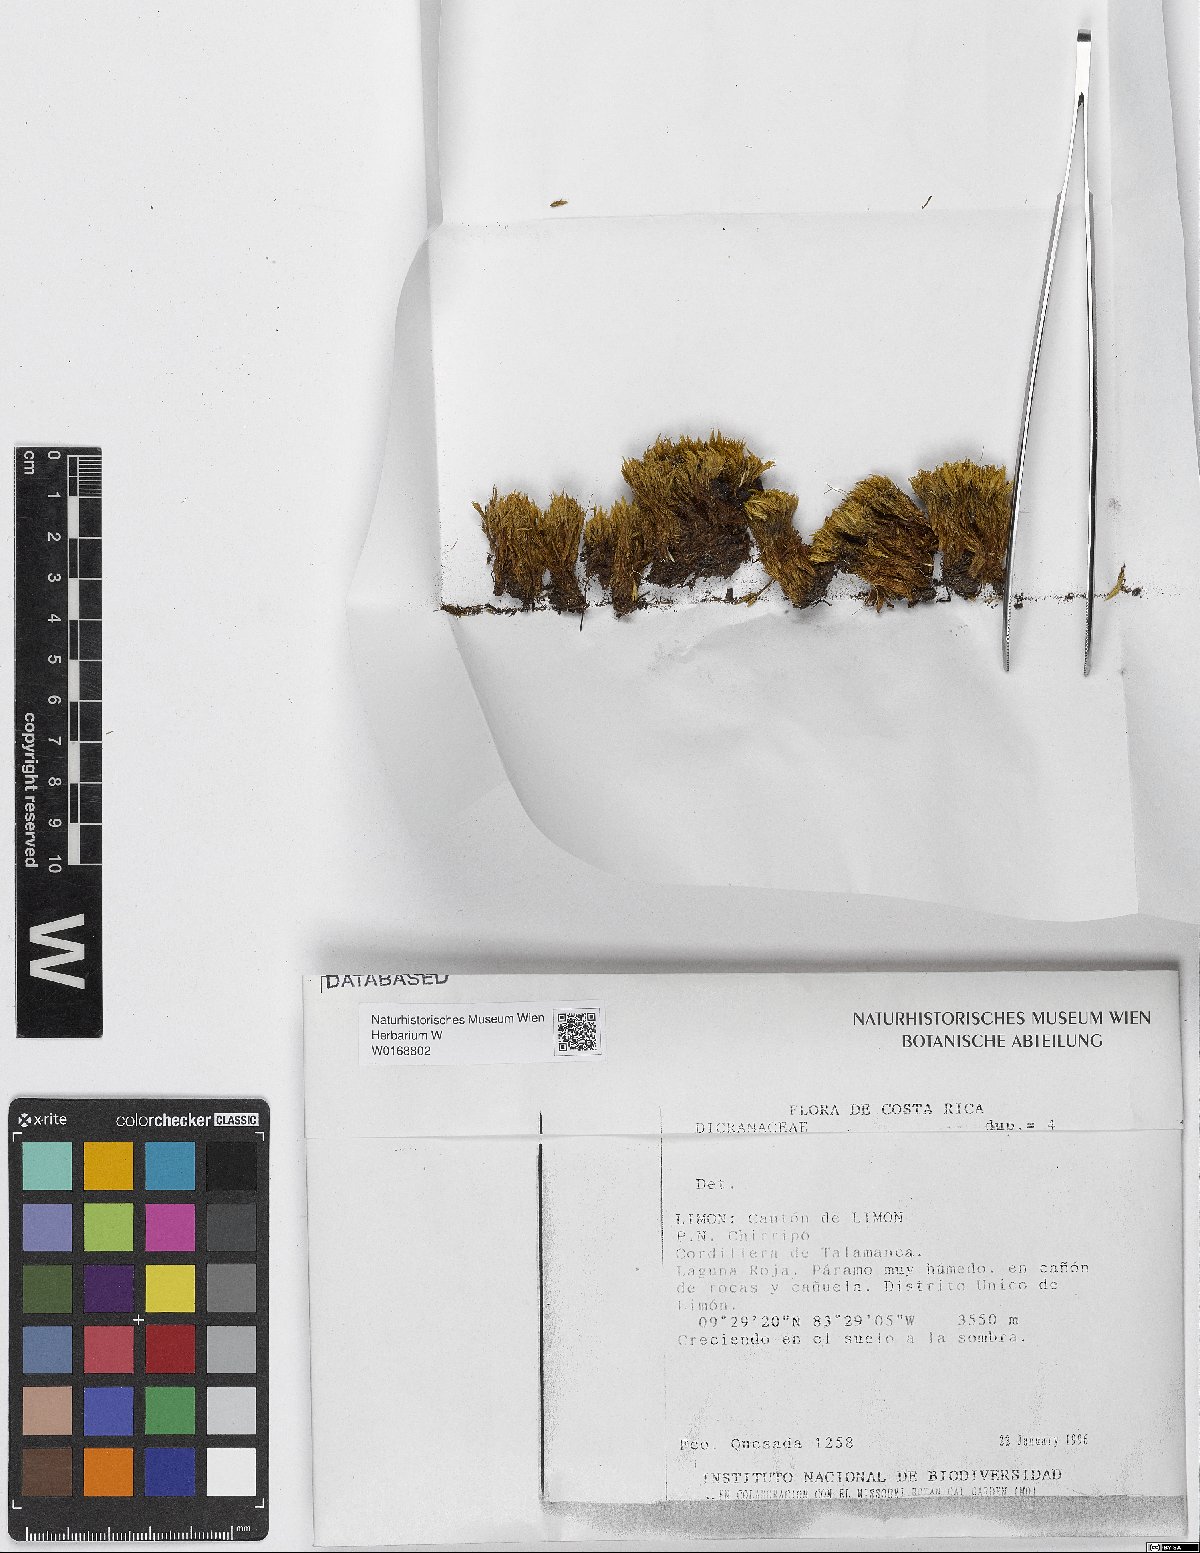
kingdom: Plantae
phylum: Bryophyta
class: Bryopsida
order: Dicranales
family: Dicranaceae
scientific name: Dicranaceae
